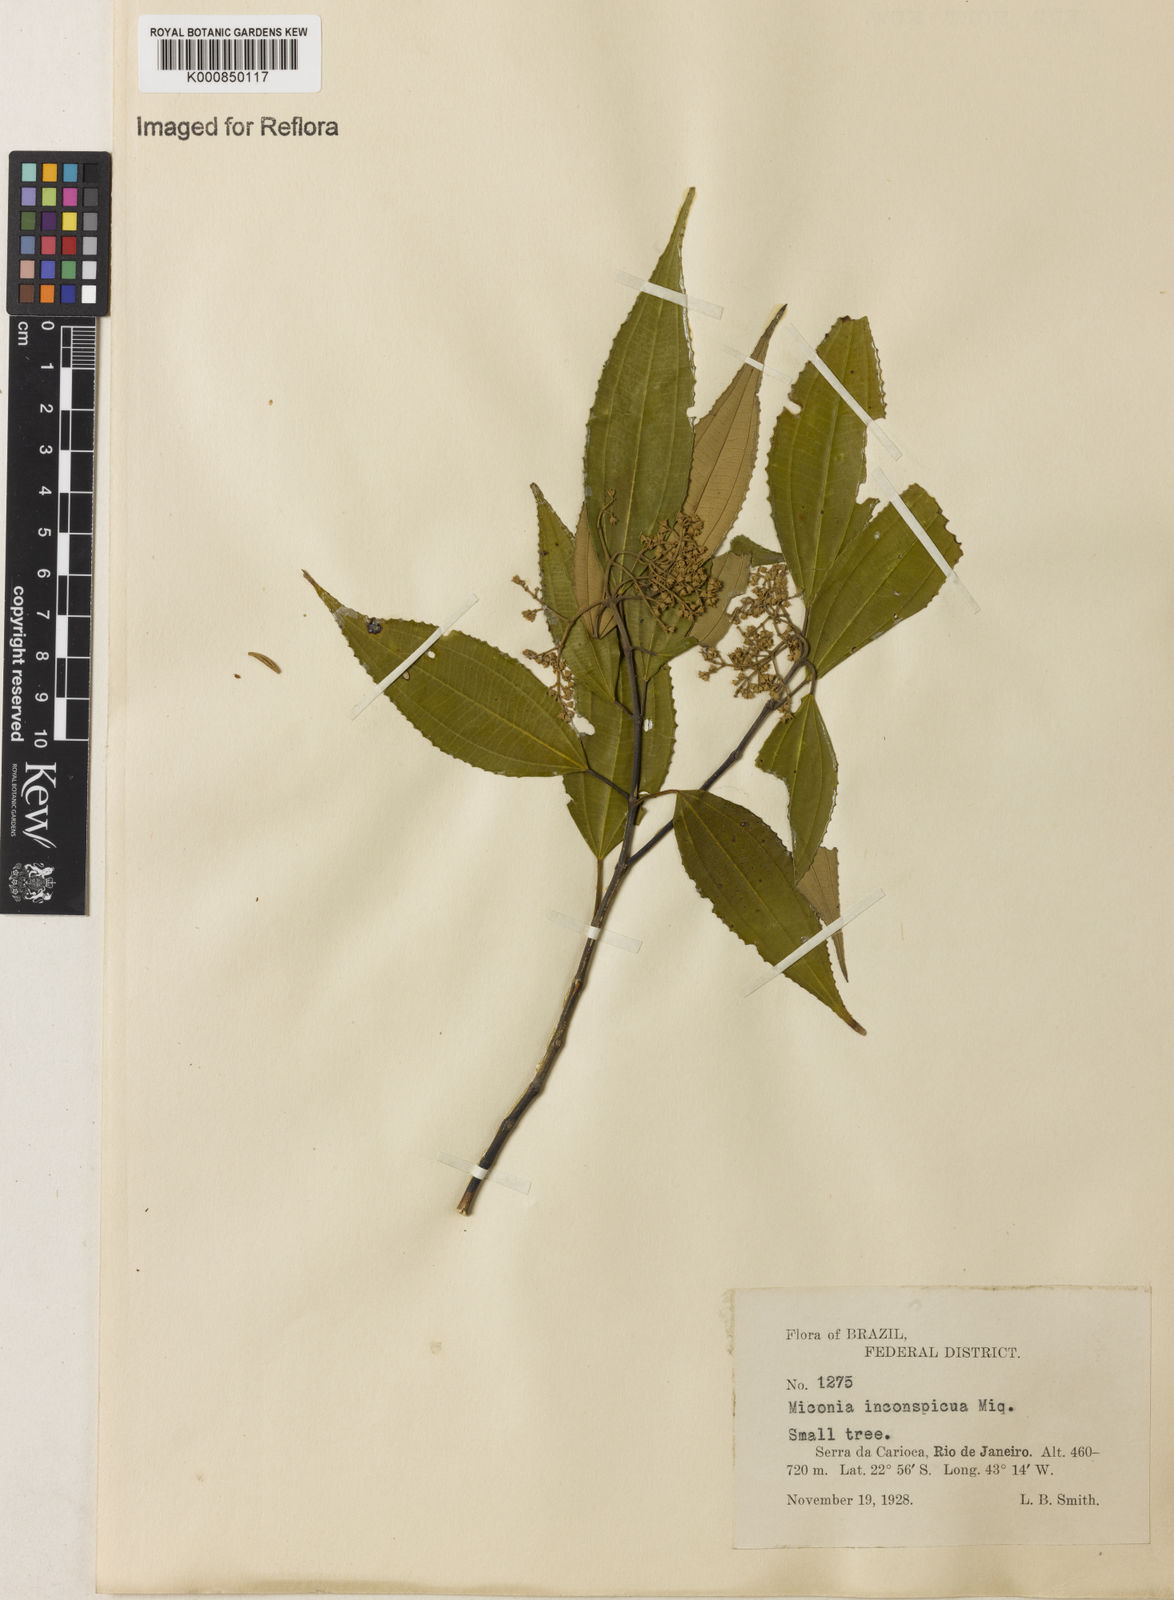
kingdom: Plantae
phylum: Tracheophyta
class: Magnoliopsida
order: Myrtales
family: Melastomataceae
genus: Miconia
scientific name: Miconia inconspicua
